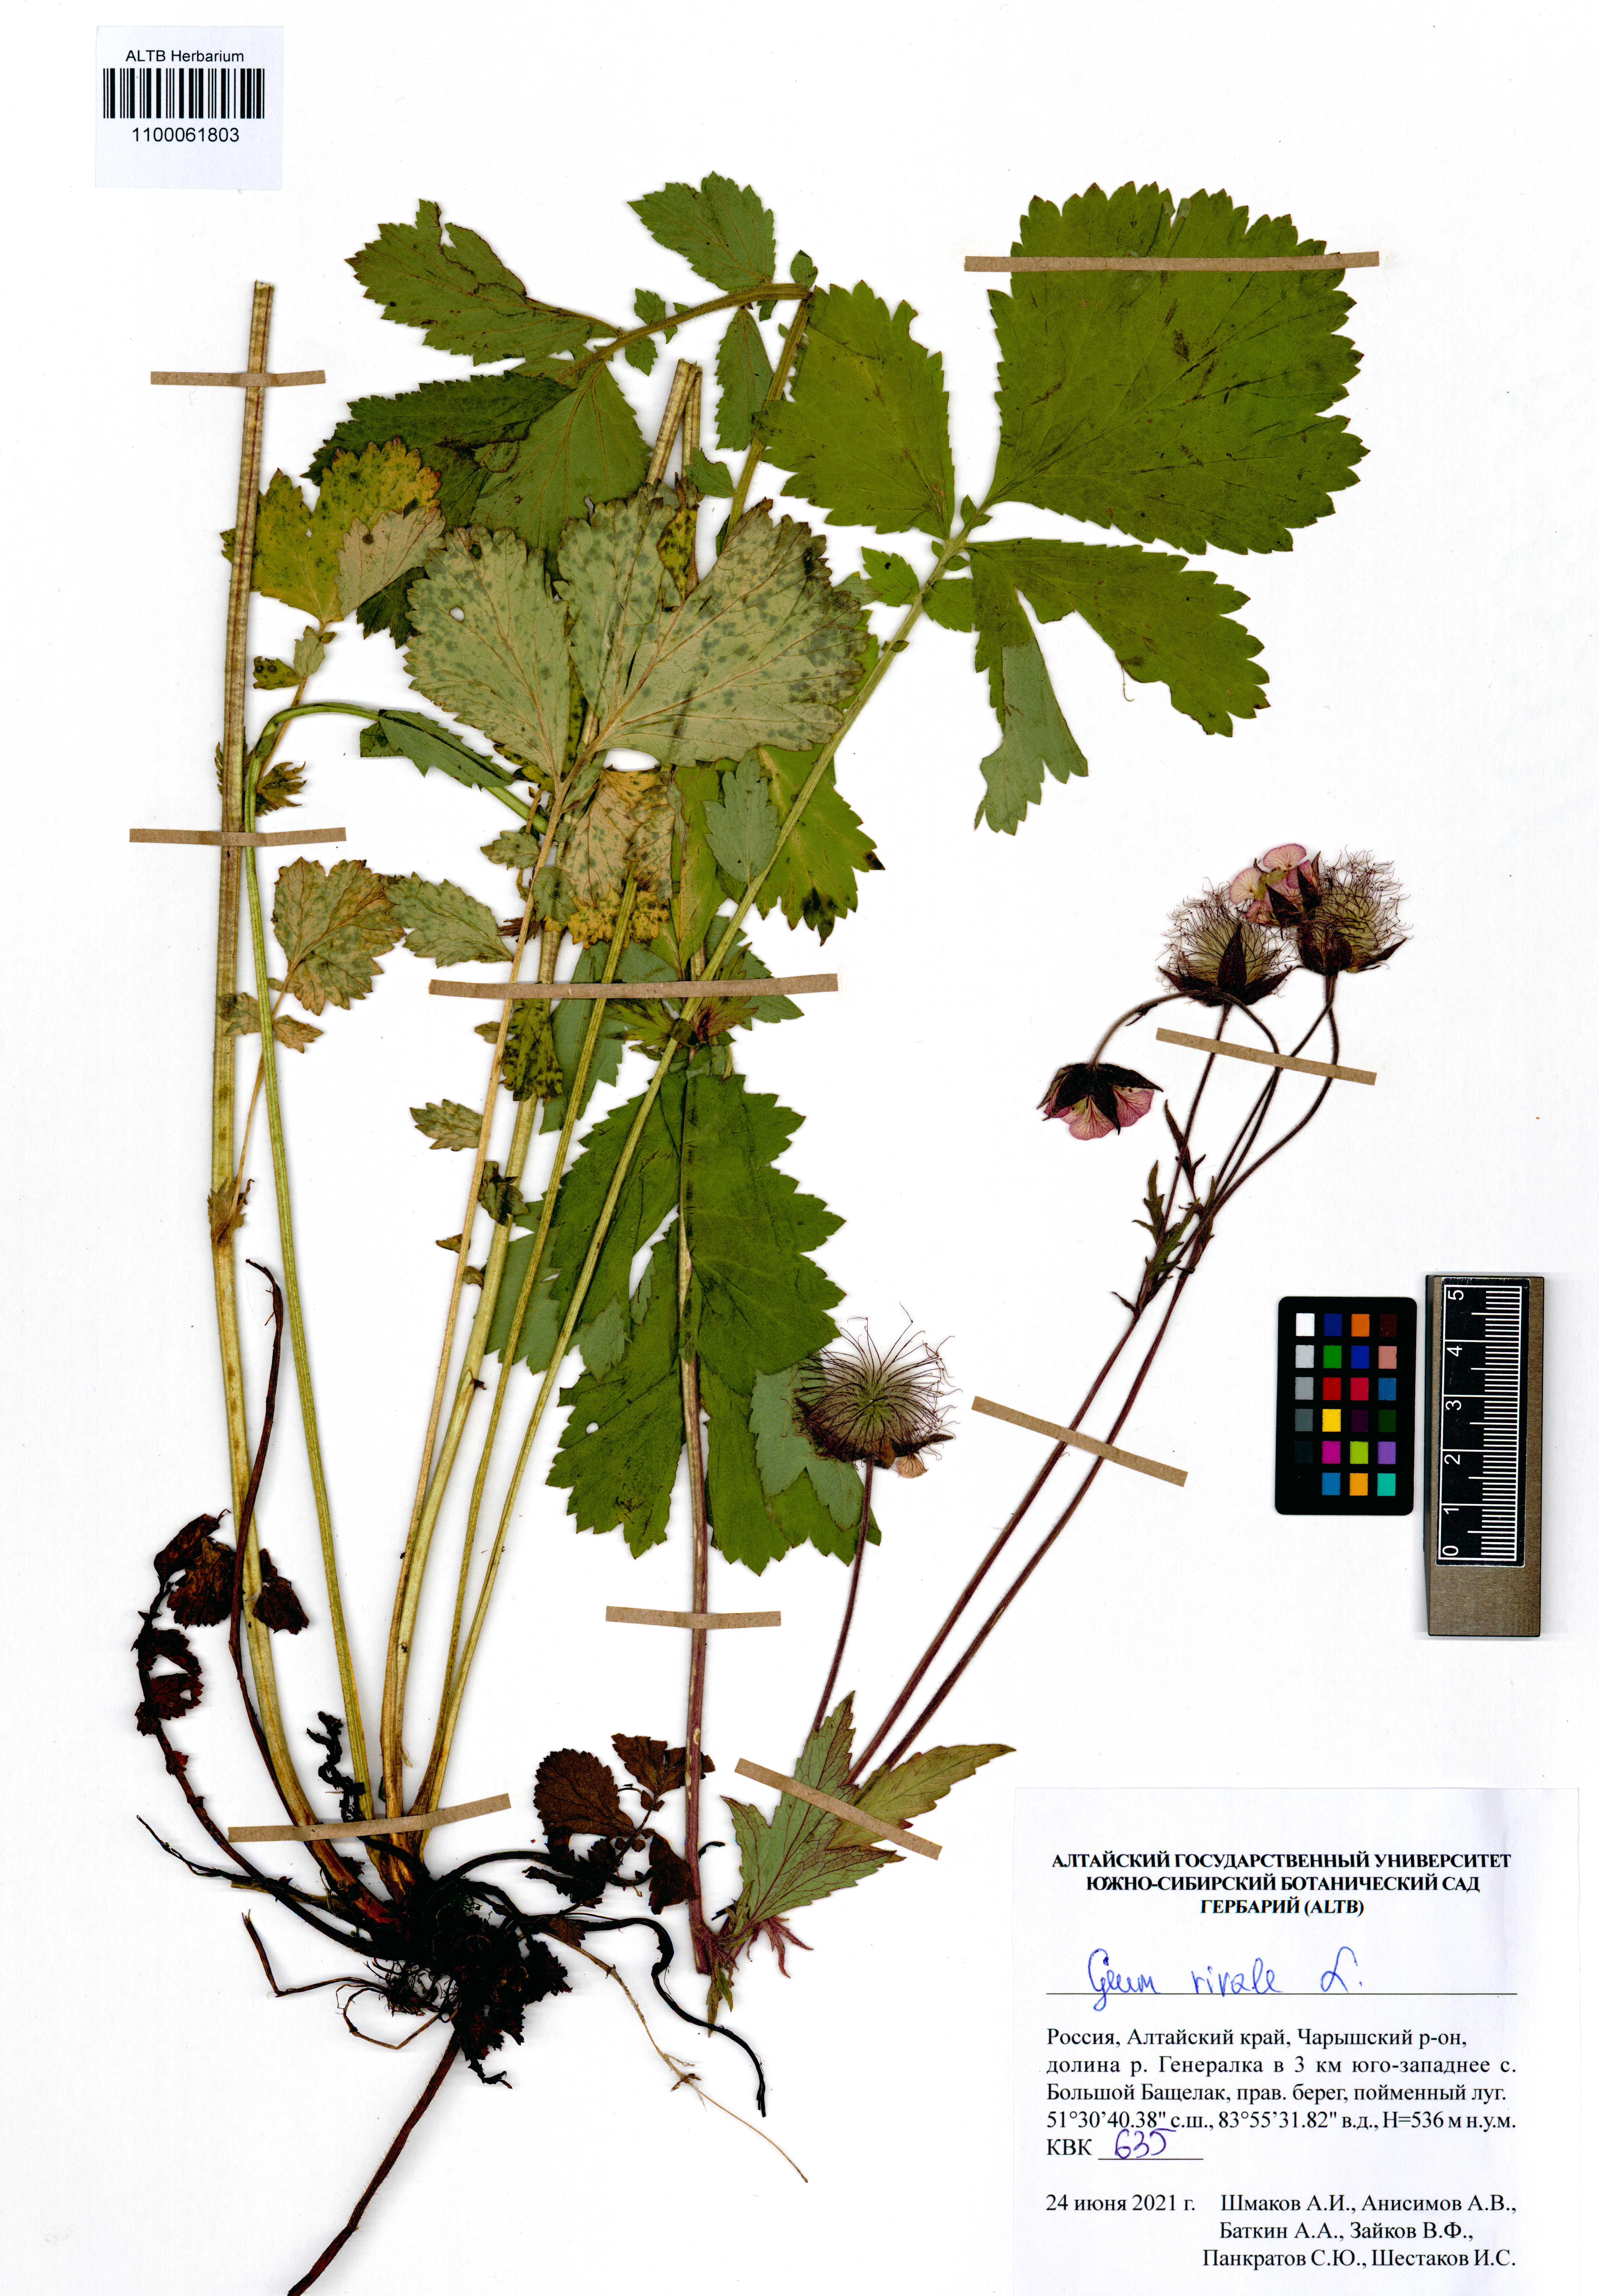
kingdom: Plantae
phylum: Tracheophyta
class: Magnoliopsida
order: Rosales
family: Rosaceae
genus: Geum
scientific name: Geum rivale
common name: Water avens
